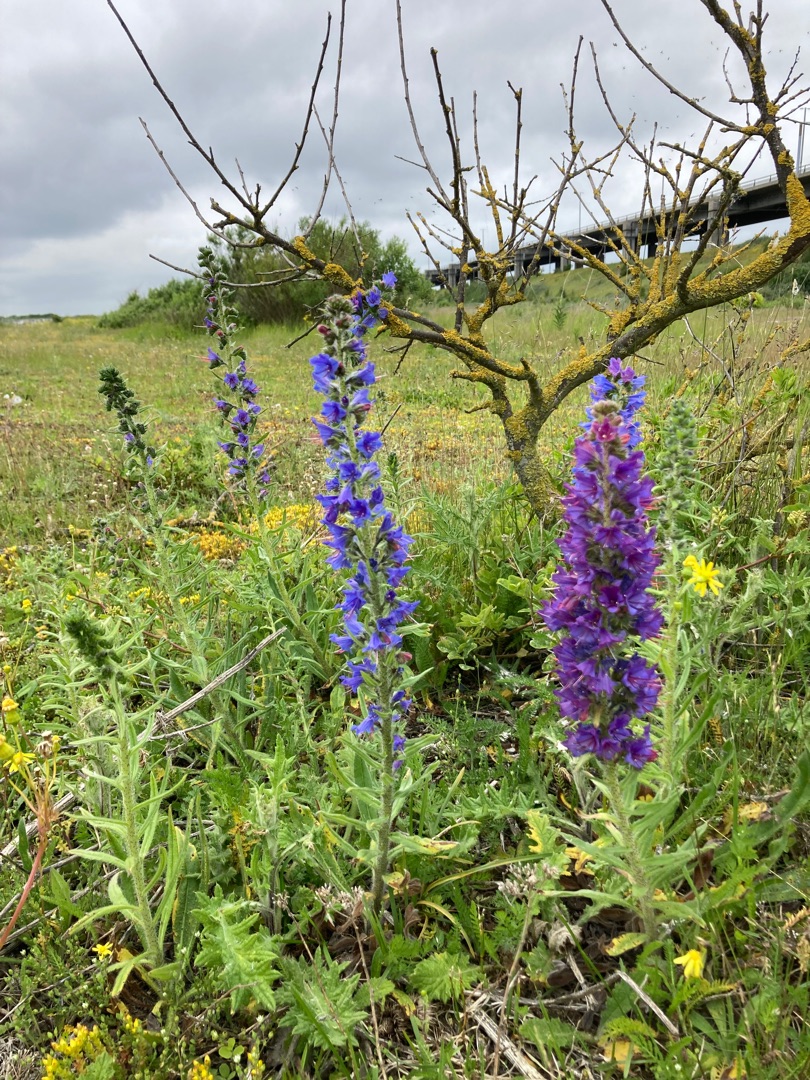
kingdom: Plantae
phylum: Tracheophyta
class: Magnoliopsida
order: Boraginales
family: Boraginaceae
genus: Echium
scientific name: Echium vulgare
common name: Slangehoved
